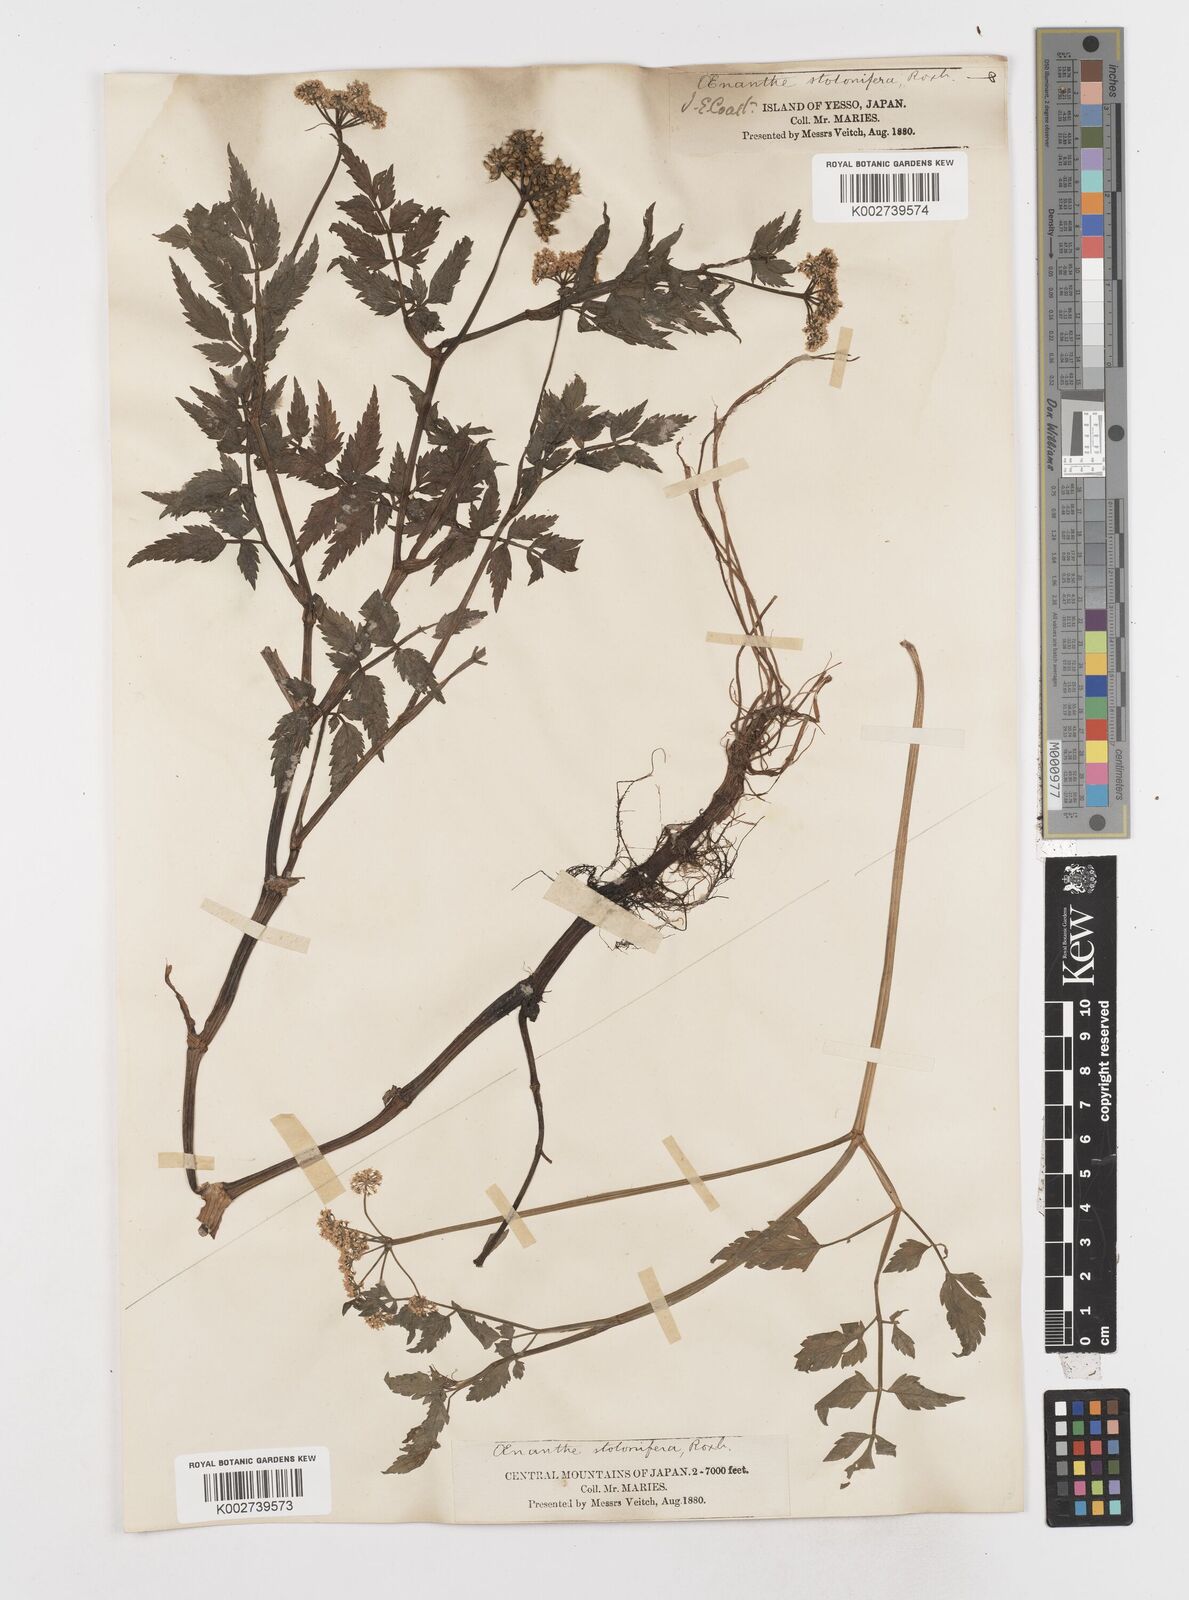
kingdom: Plantae
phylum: Tracheophyta
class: Magnoliopsida
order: Apiales
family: Apiaceae
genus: Oenanthe
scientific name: Oenanthe javanica
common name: Java water-dropwort
